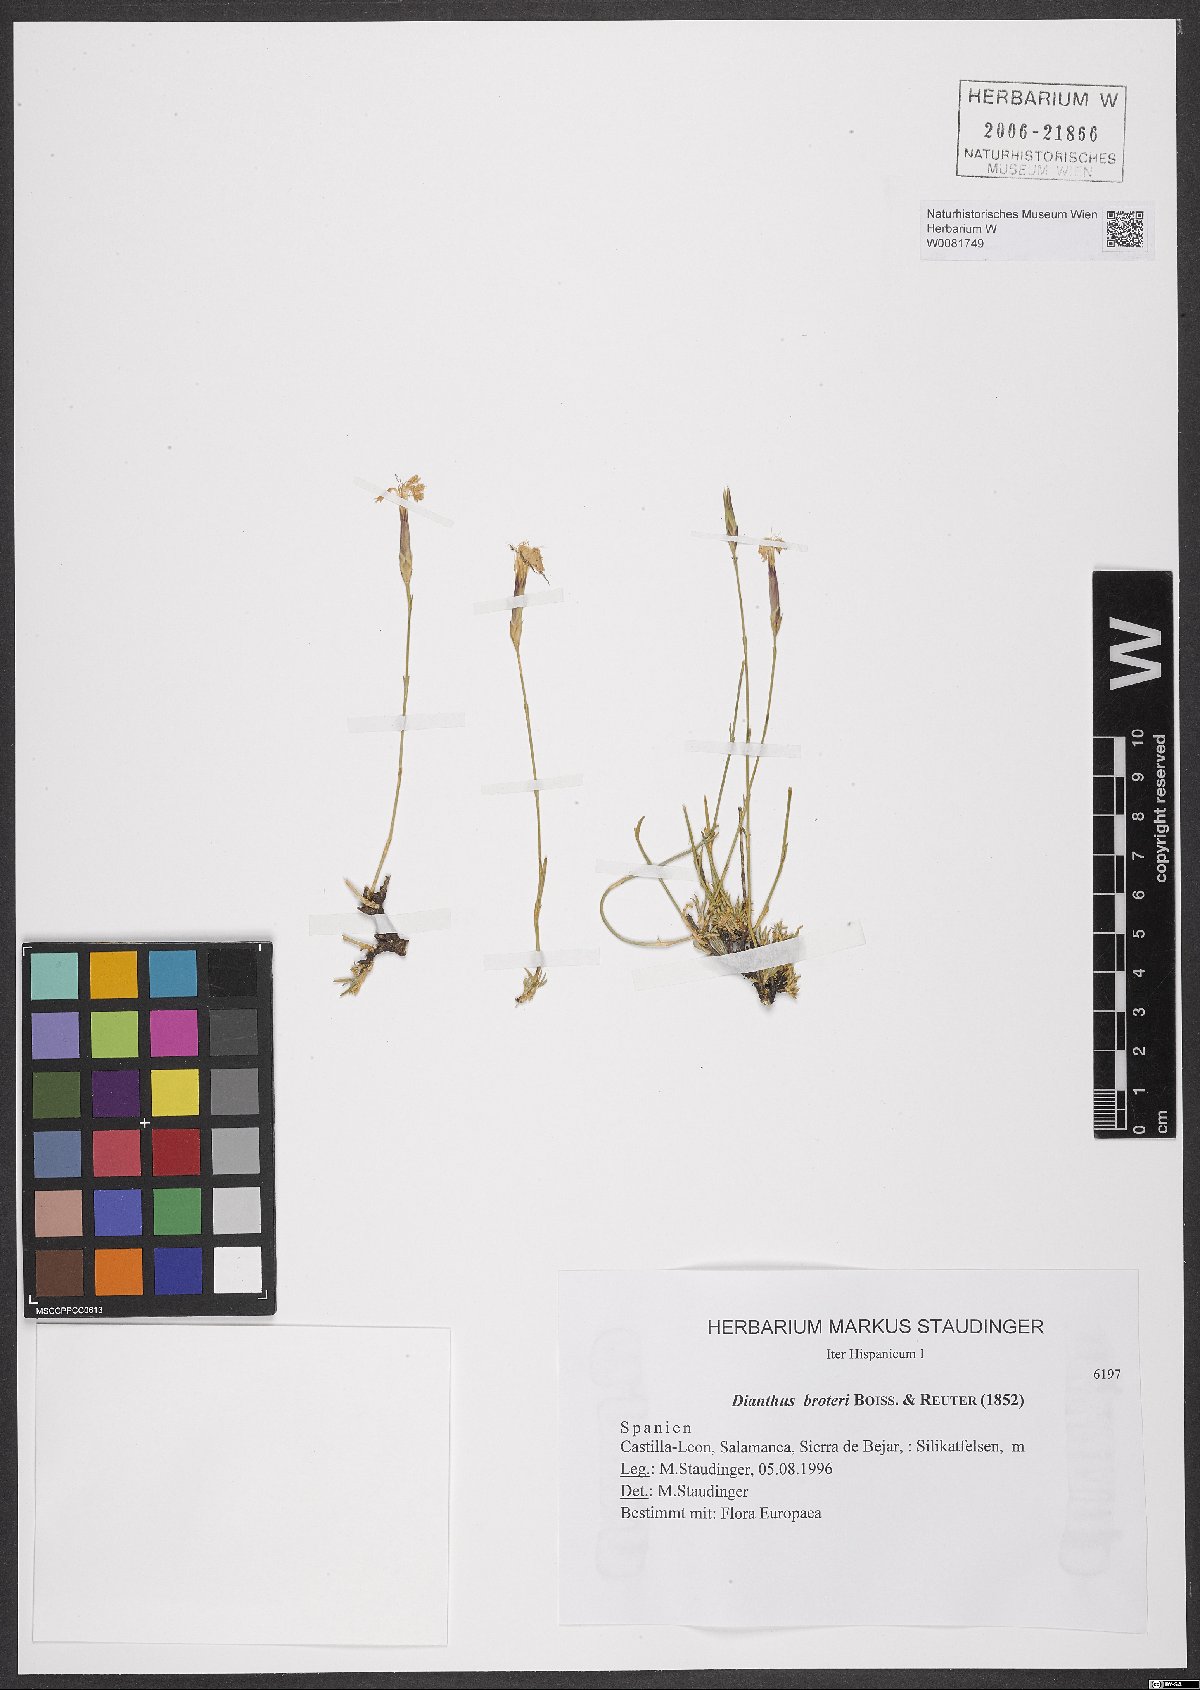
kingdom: Plantae
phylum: Tracheophyta
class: Magnoliopsida
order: Caryophyllales
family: Caryophyllaceae
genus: Dianthus
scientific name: Dianthus broteri
